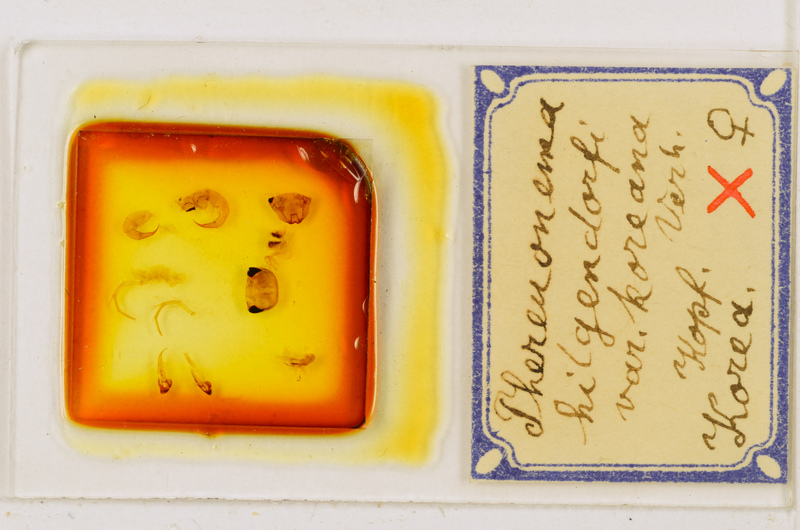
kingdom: Animalia
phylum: Arthropoda
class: Chilopoda
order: Scutigeromorpha
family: Scutigeridae
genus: Thereuonema
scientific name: Thereuonema tuberculata
